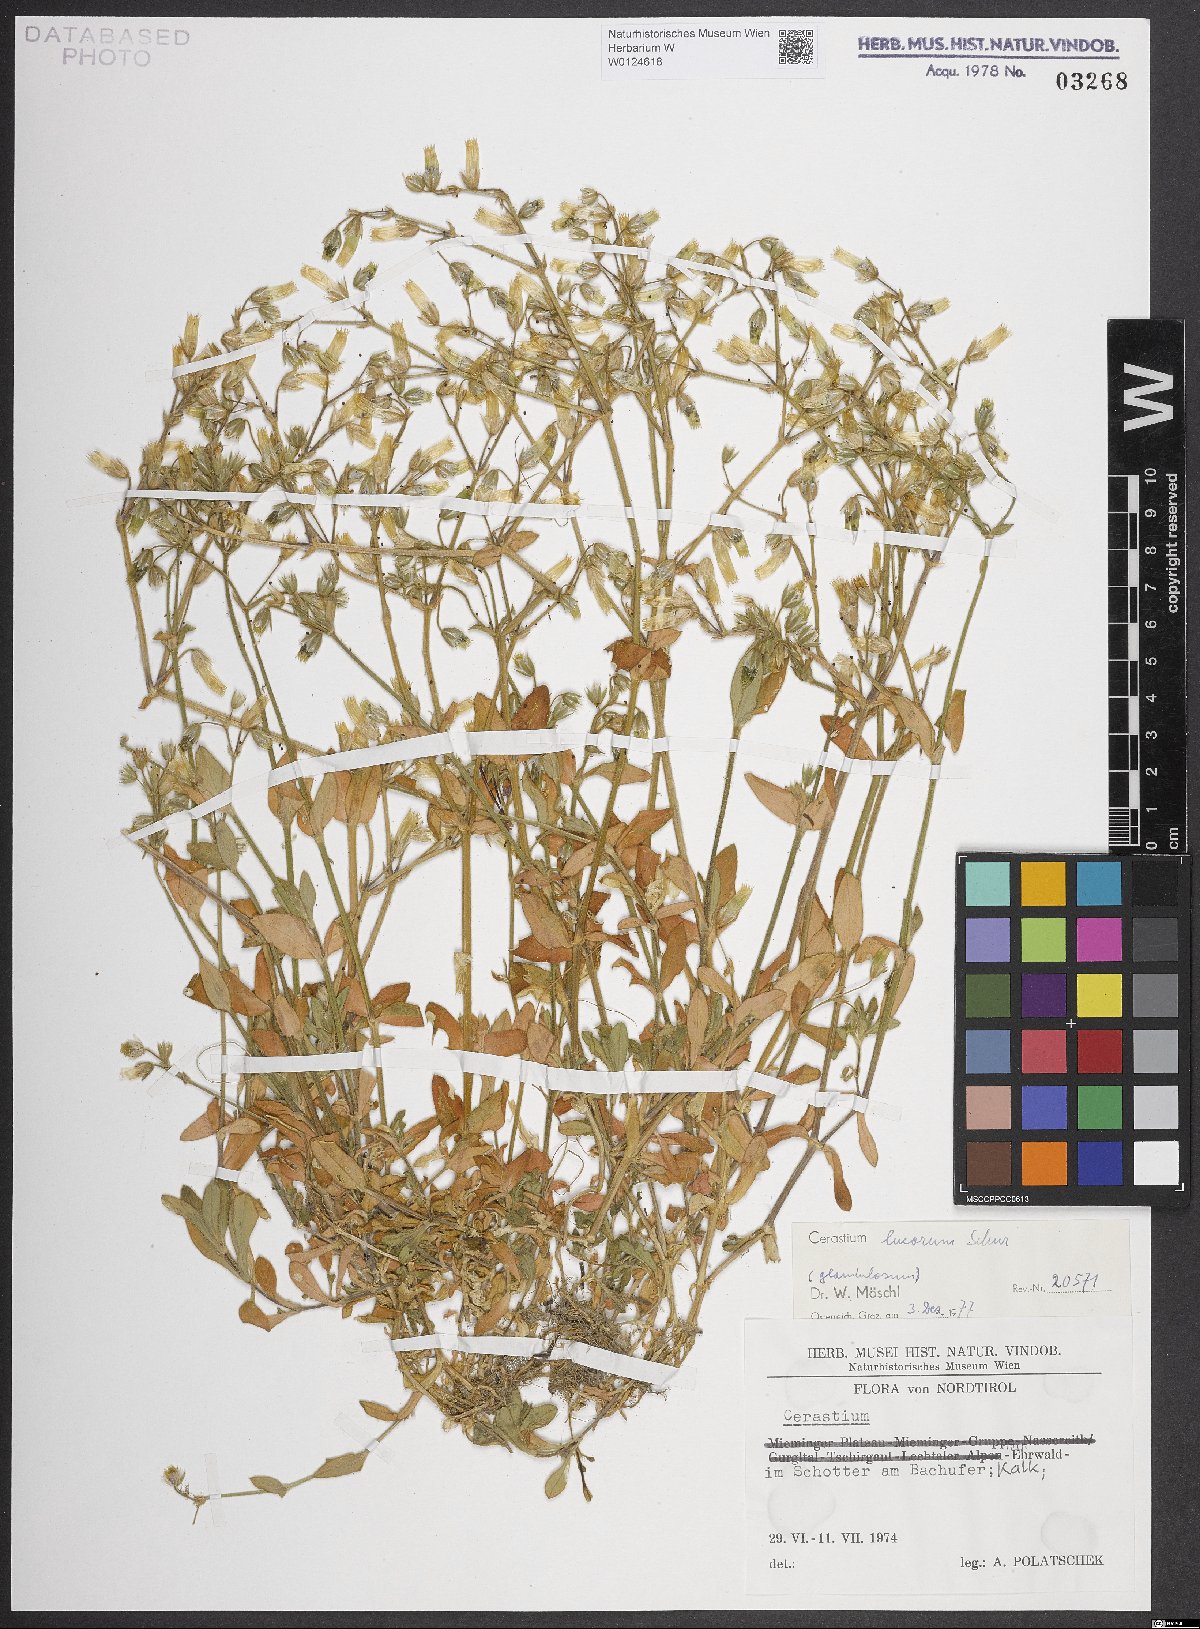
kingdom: Plantae
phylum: Tracheophyta
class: Magnoliopsida
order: Caryophyllales
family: Caryophyllaceae
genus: Cerastium
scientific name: Cerastium lucorum
